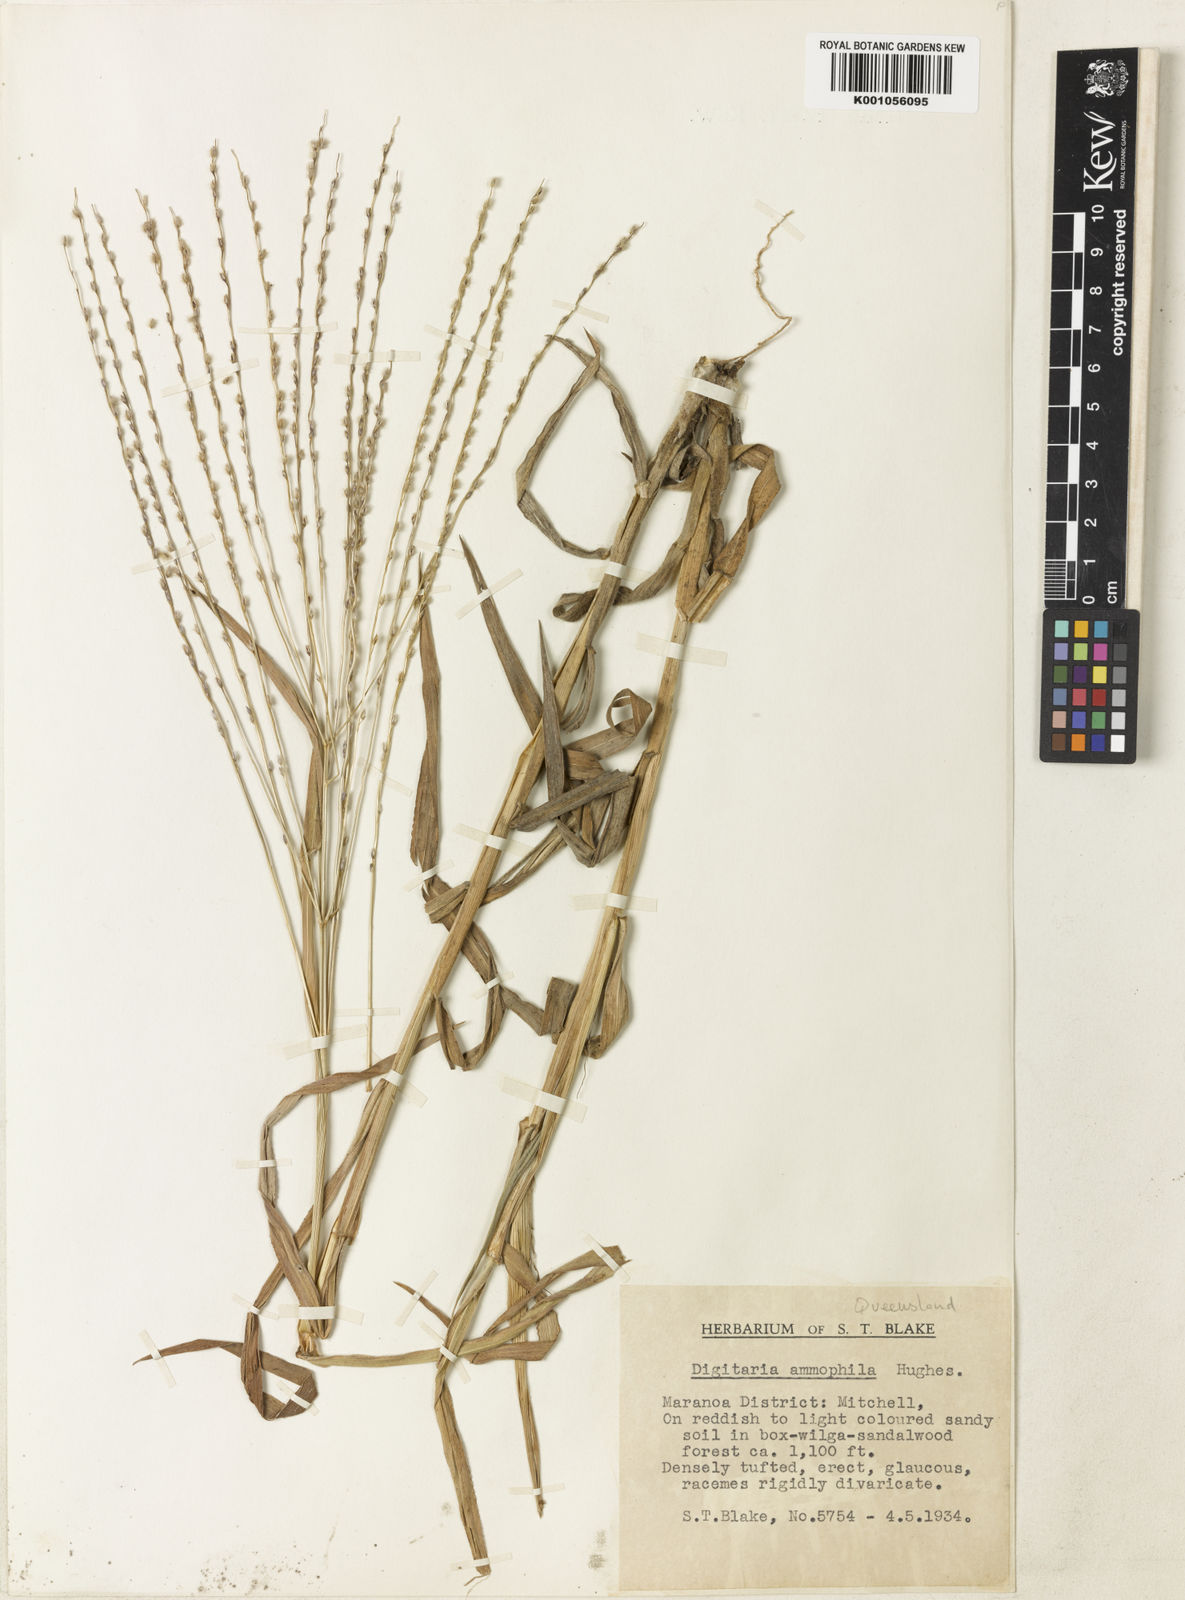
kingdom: Plantae
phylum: Tracheophyta
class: Liliopsida
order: Poales
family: Poaceae
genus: Digitaria
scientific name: Digitaria ammophila
